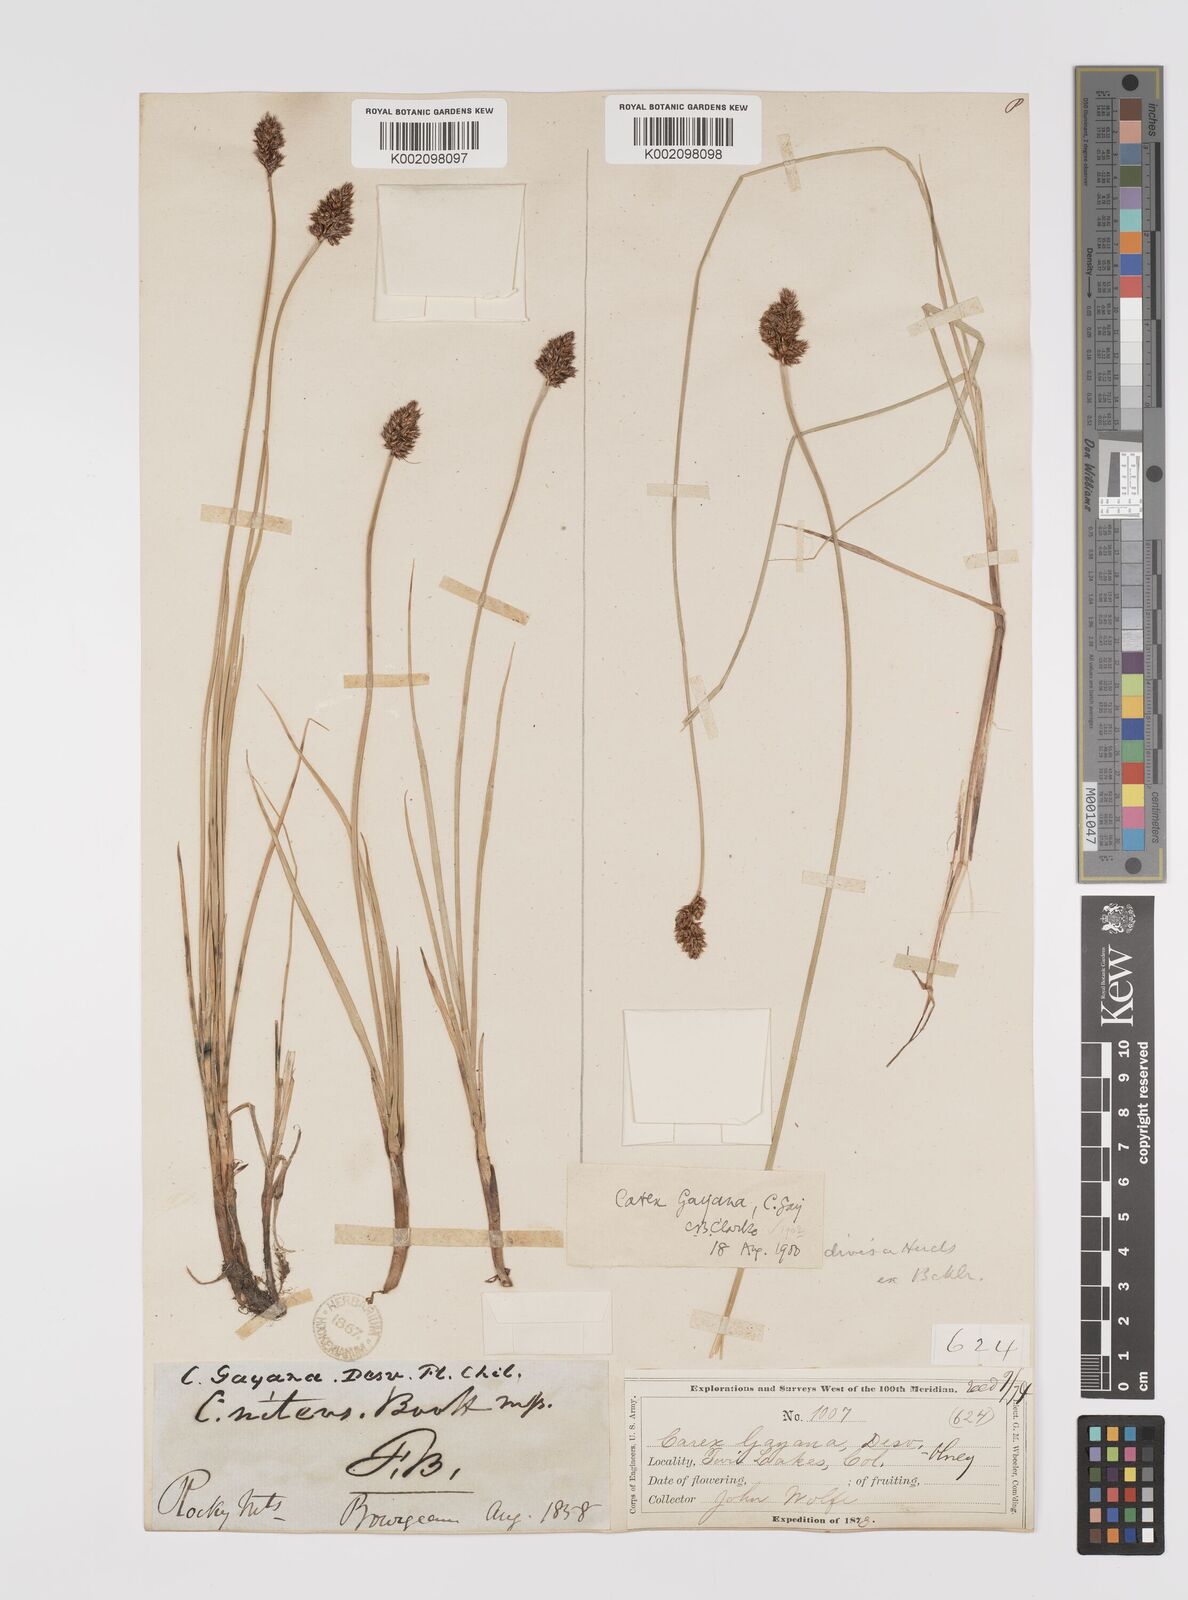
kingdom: Plantae
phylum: Tracheophyta
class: Liliopsida
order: Poales
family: Cyperaceae
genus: Carex
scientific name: Carex praegracilis
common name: Black creeper sedge
